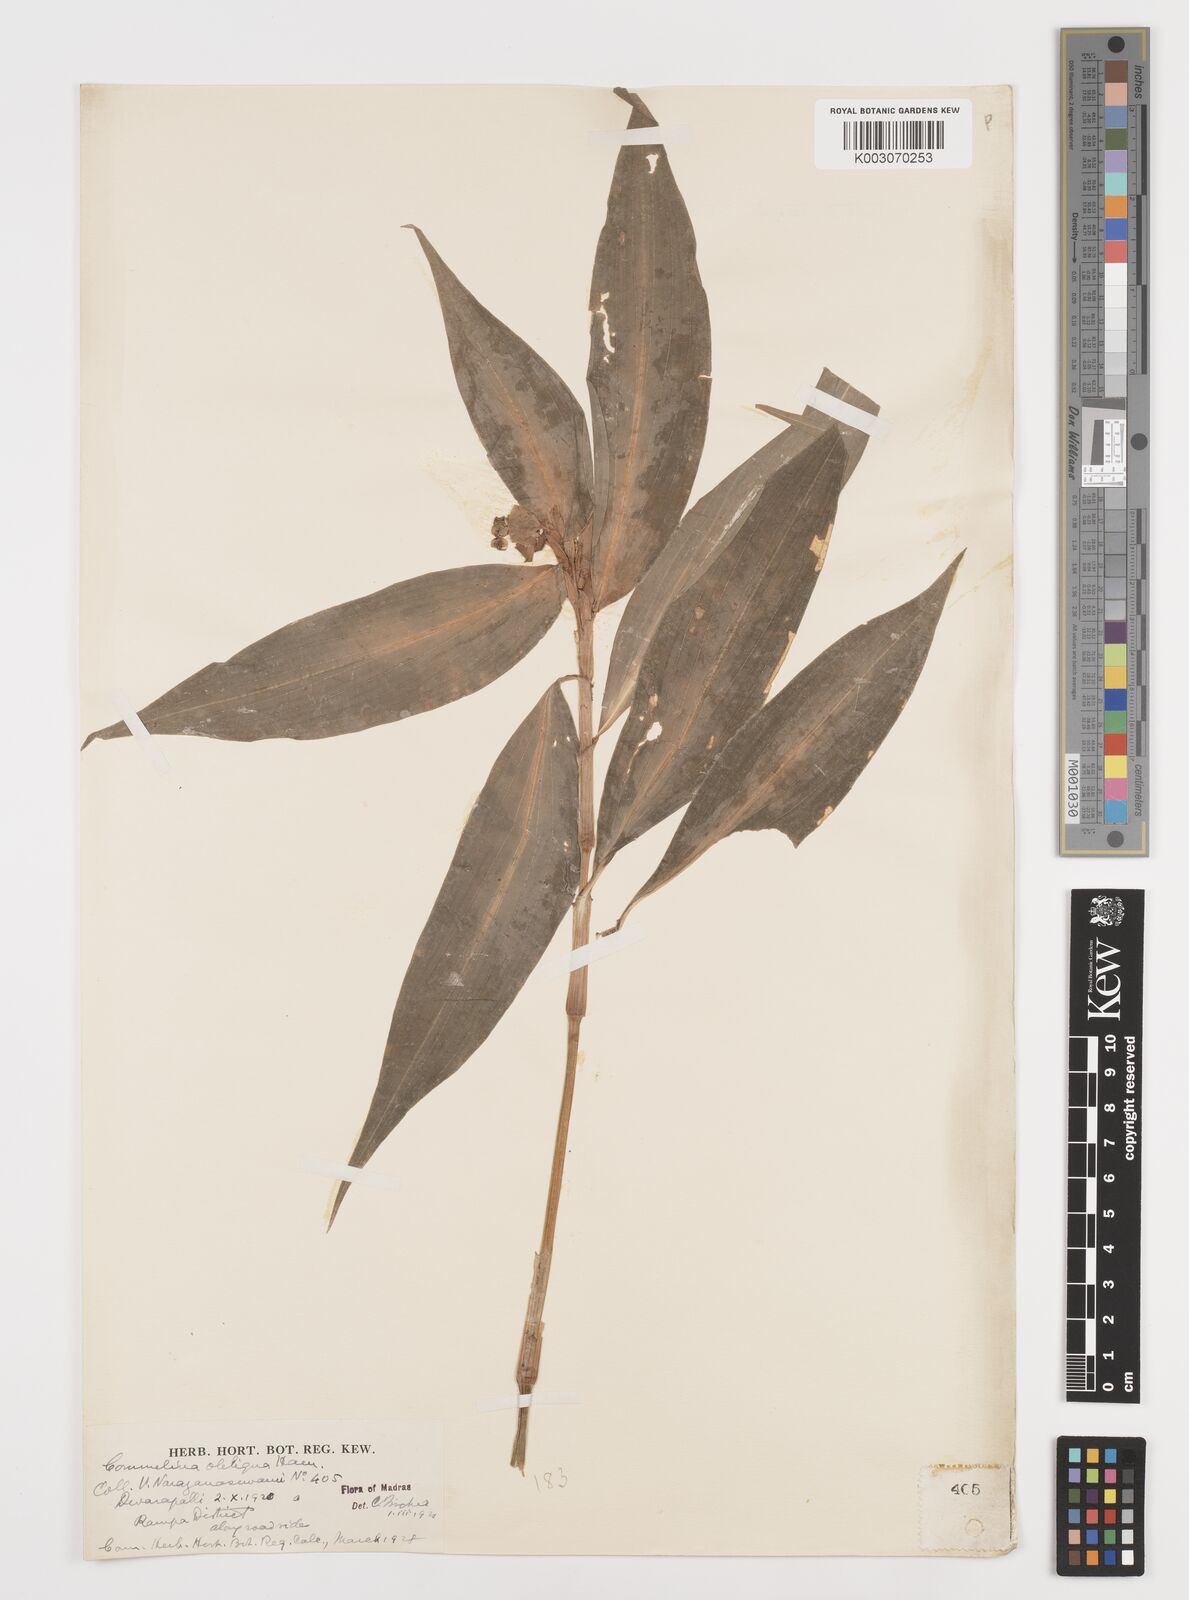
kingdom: Plantae
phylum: Tracheophyta
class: Liliopsida
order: Commelinales
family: Commelinaceae
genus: Commelina
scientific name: Commelina paludosa
